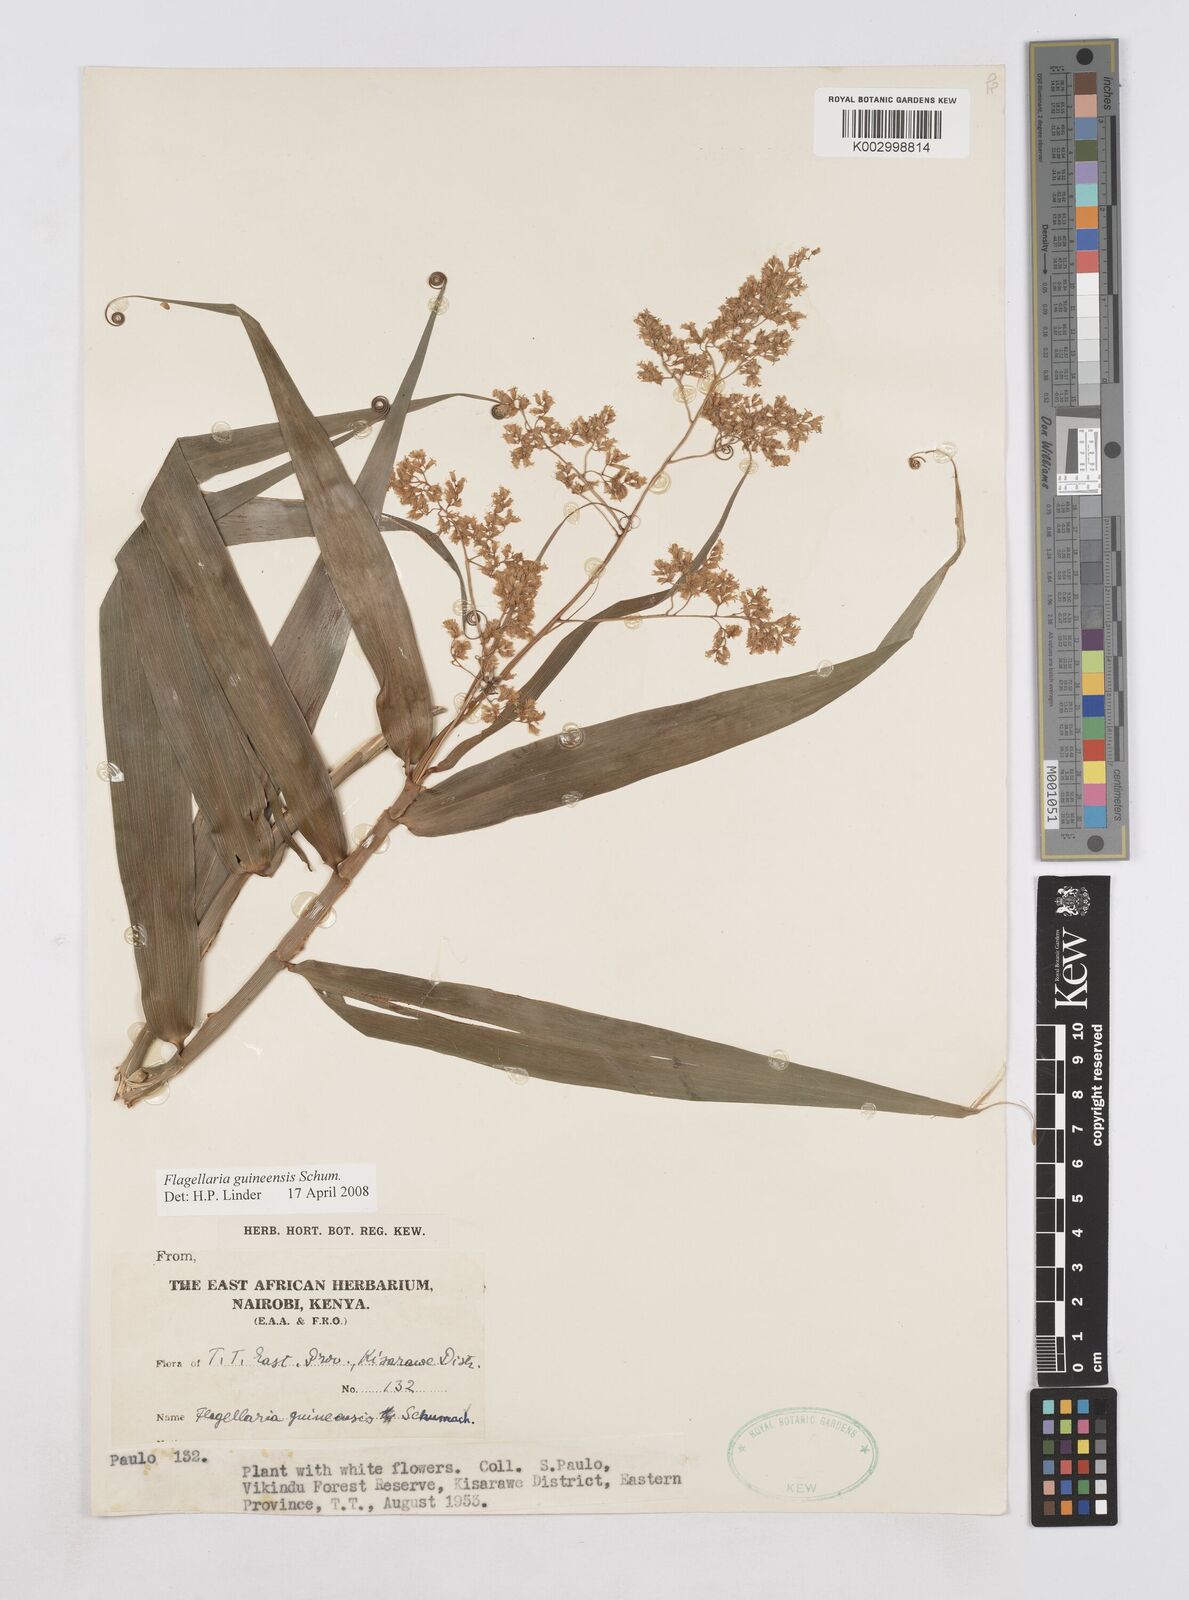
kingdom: Plantae
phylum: Tracheophyta
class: Liliopsida
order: Poales
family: Flagellariaceae
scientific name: Flagellariaceae
